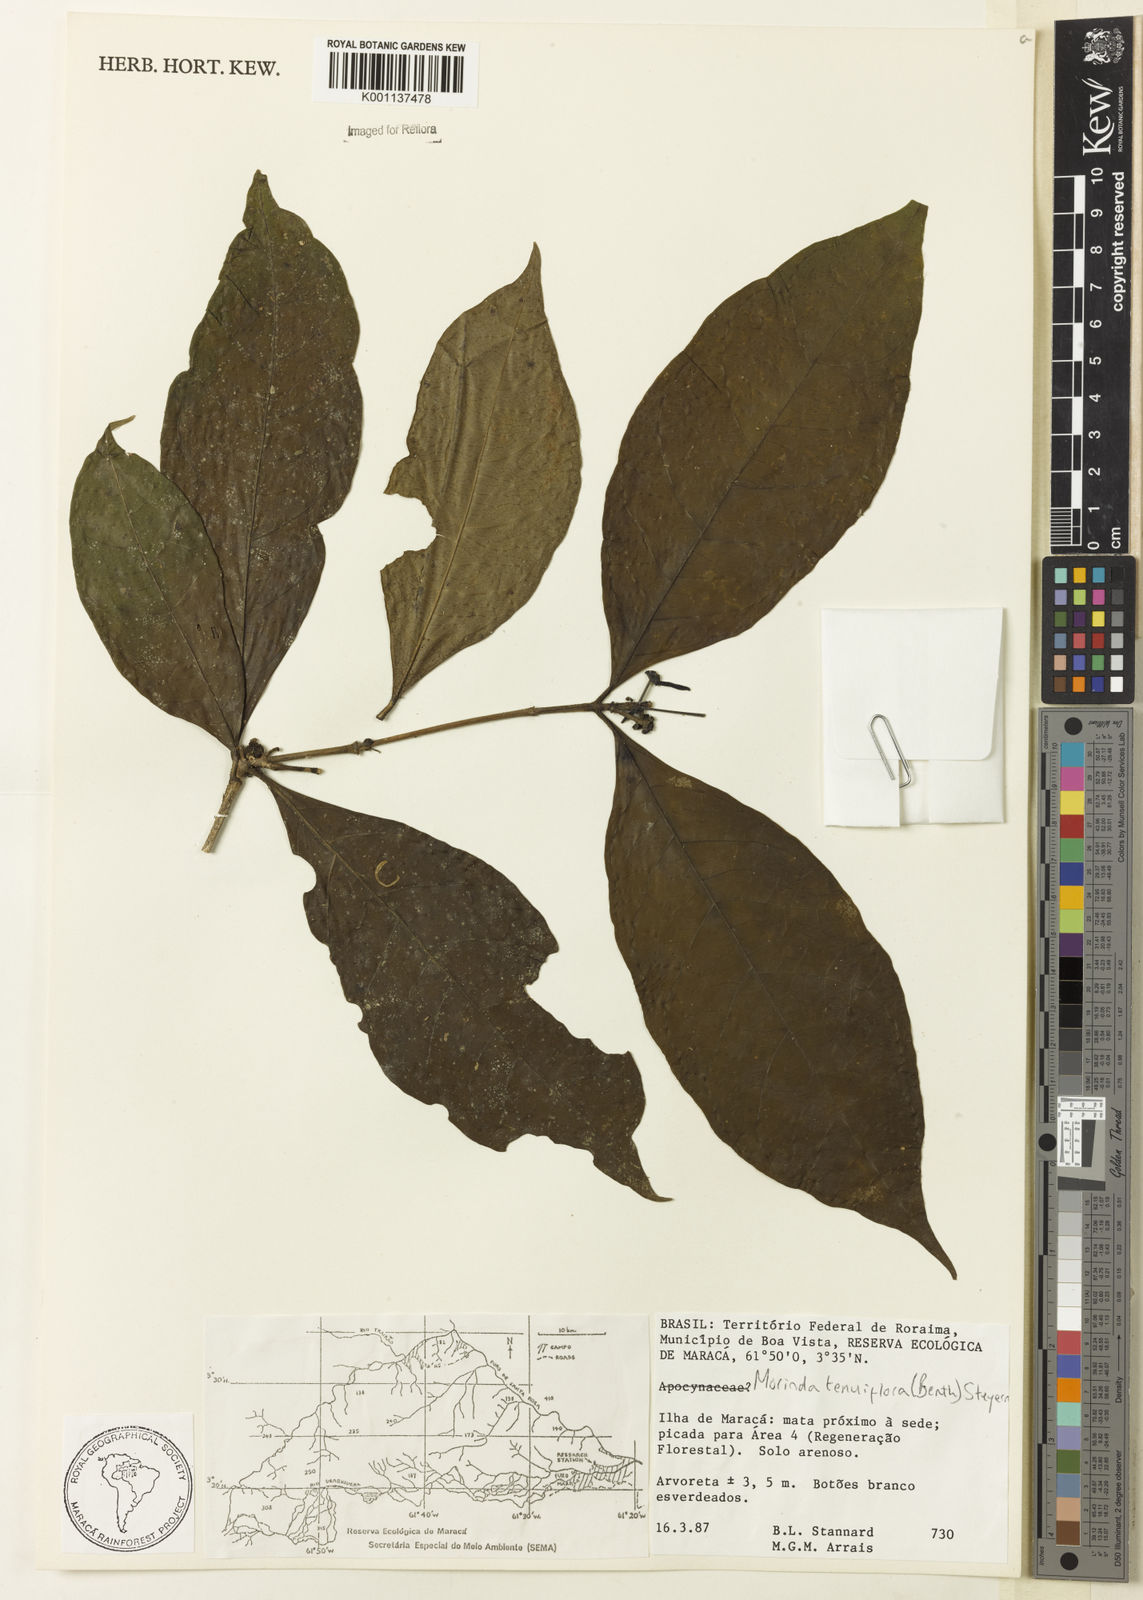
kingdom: Plantae
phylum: Tracheophyta
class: Magnoliopsida
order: Gentianales
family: Rubiaceae
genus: Appunia
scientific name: Appunia tenuiflora
